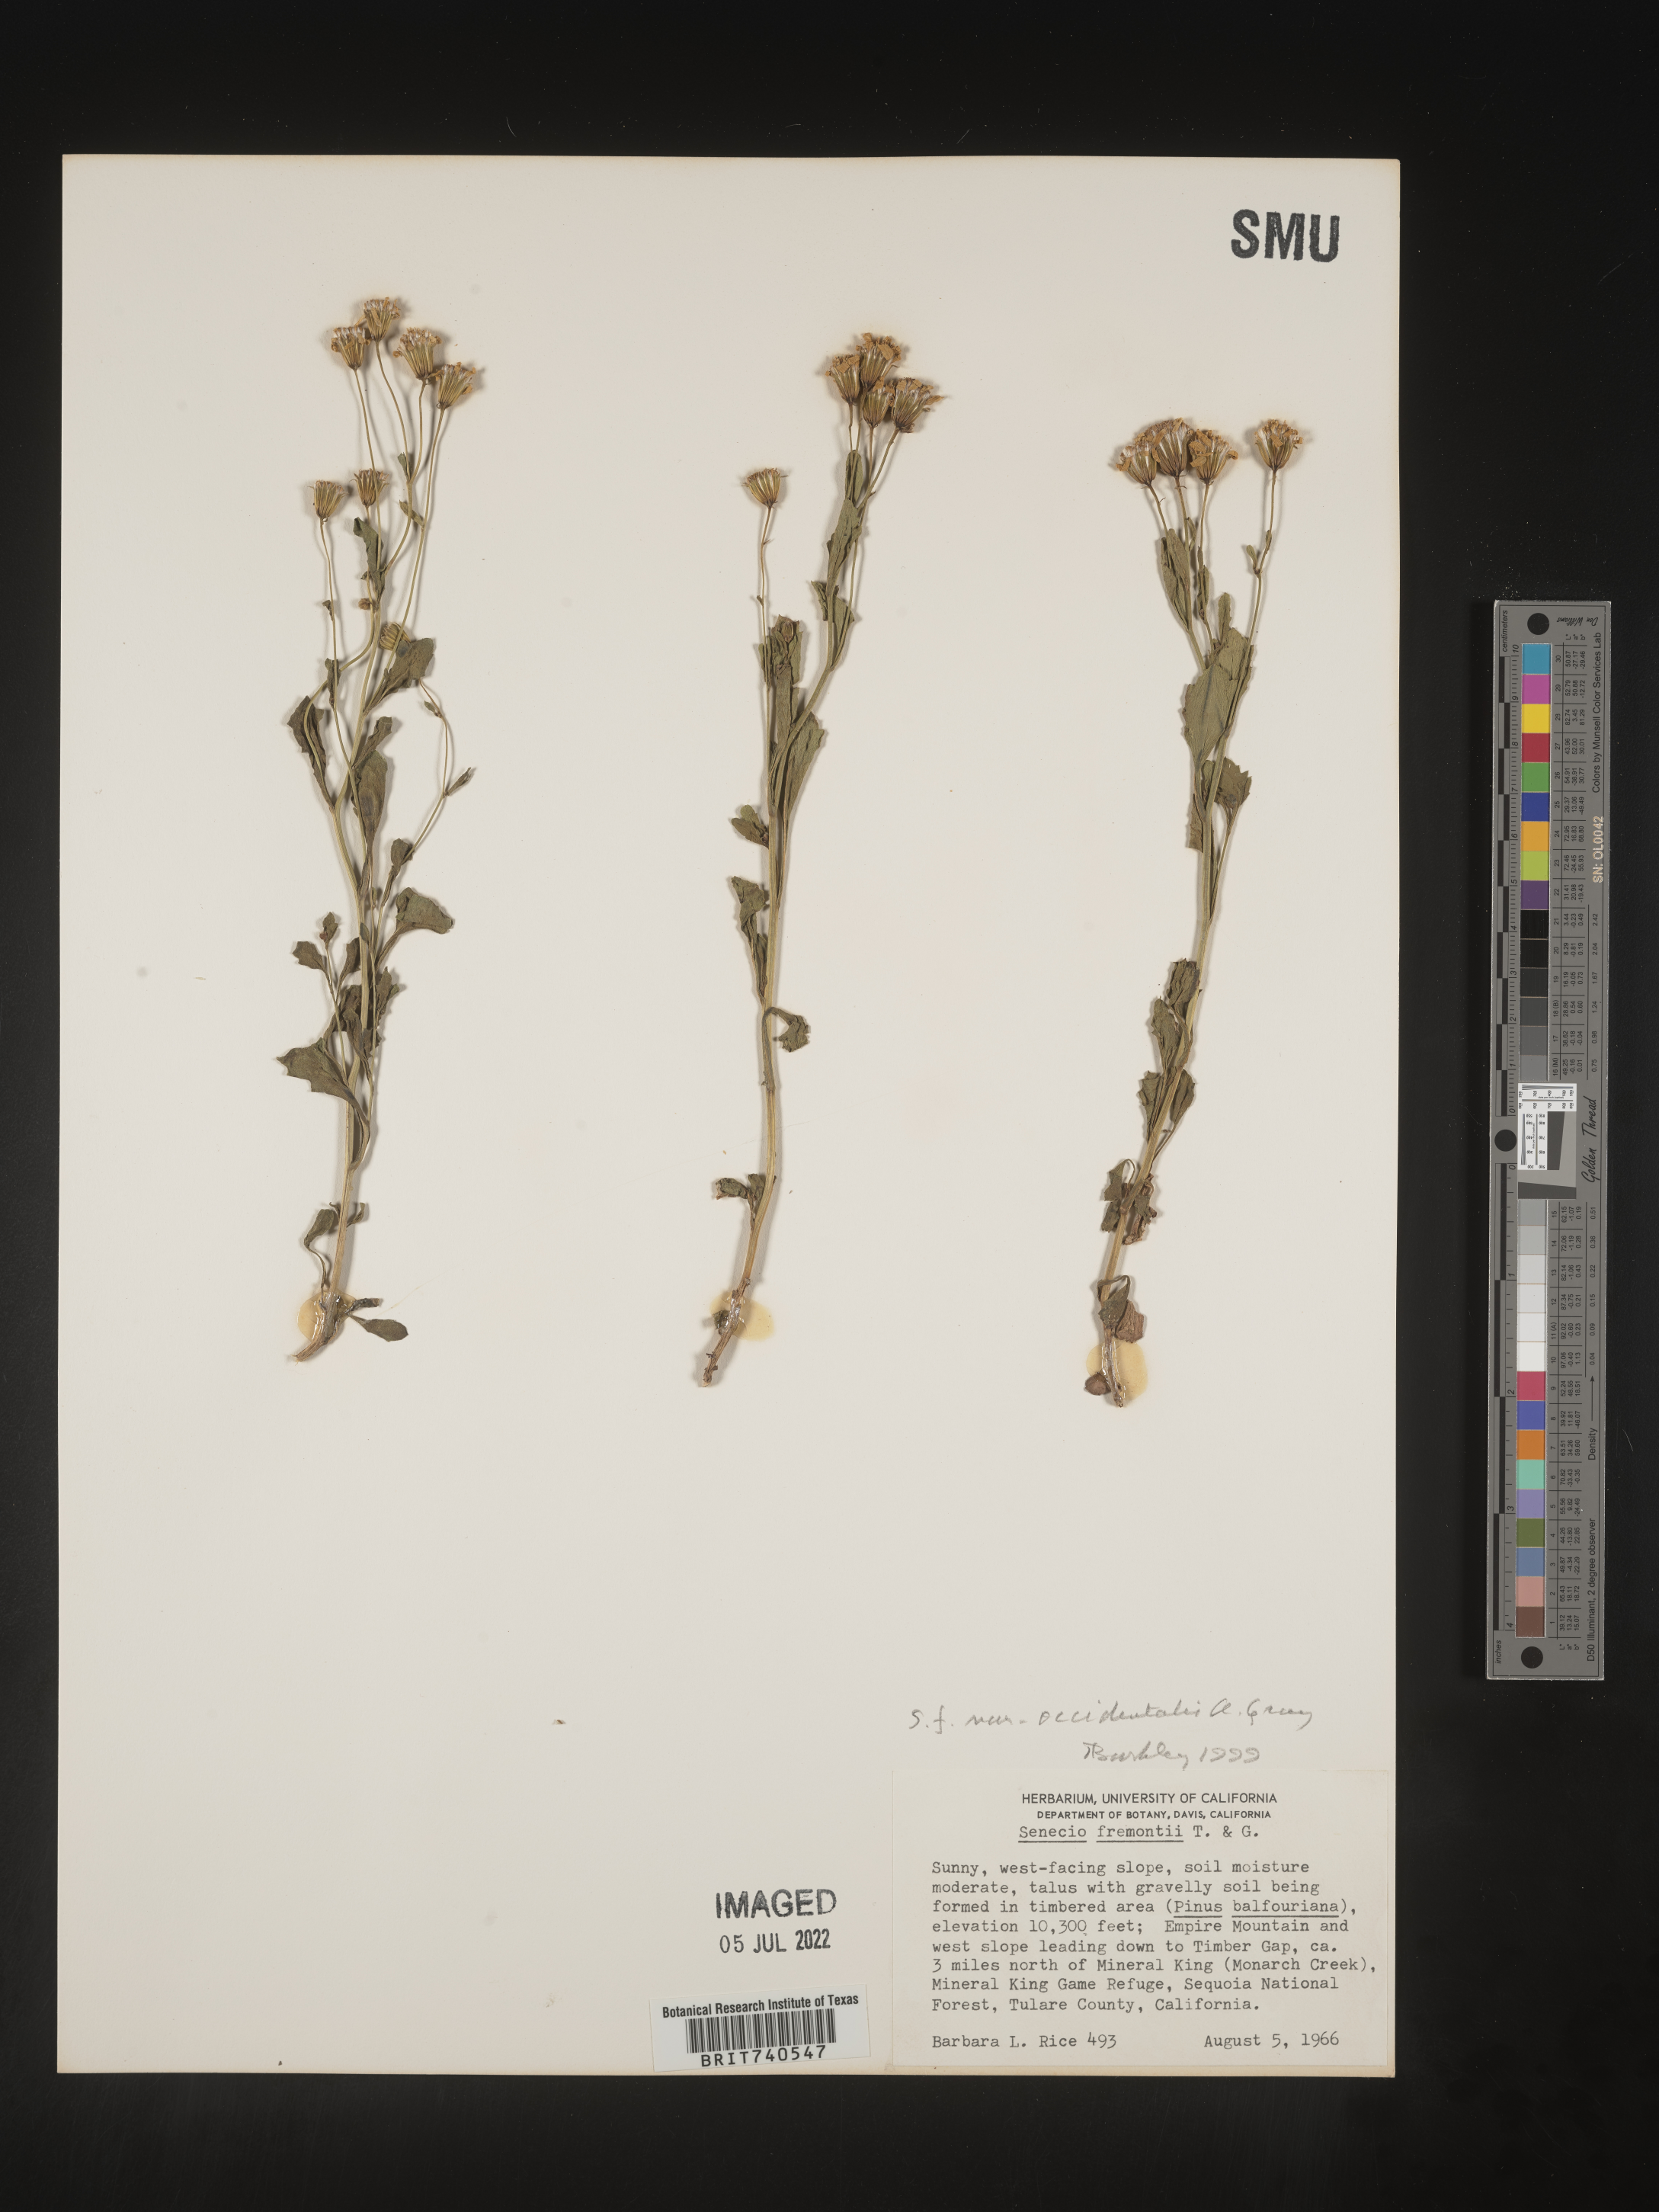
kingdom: Plantae
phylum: Tracheophyta
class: Magnoliopsida
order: Asterales
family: Asteraceae
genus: Senecio
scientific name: Senecio fremontii
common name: Fremont's groundsel
